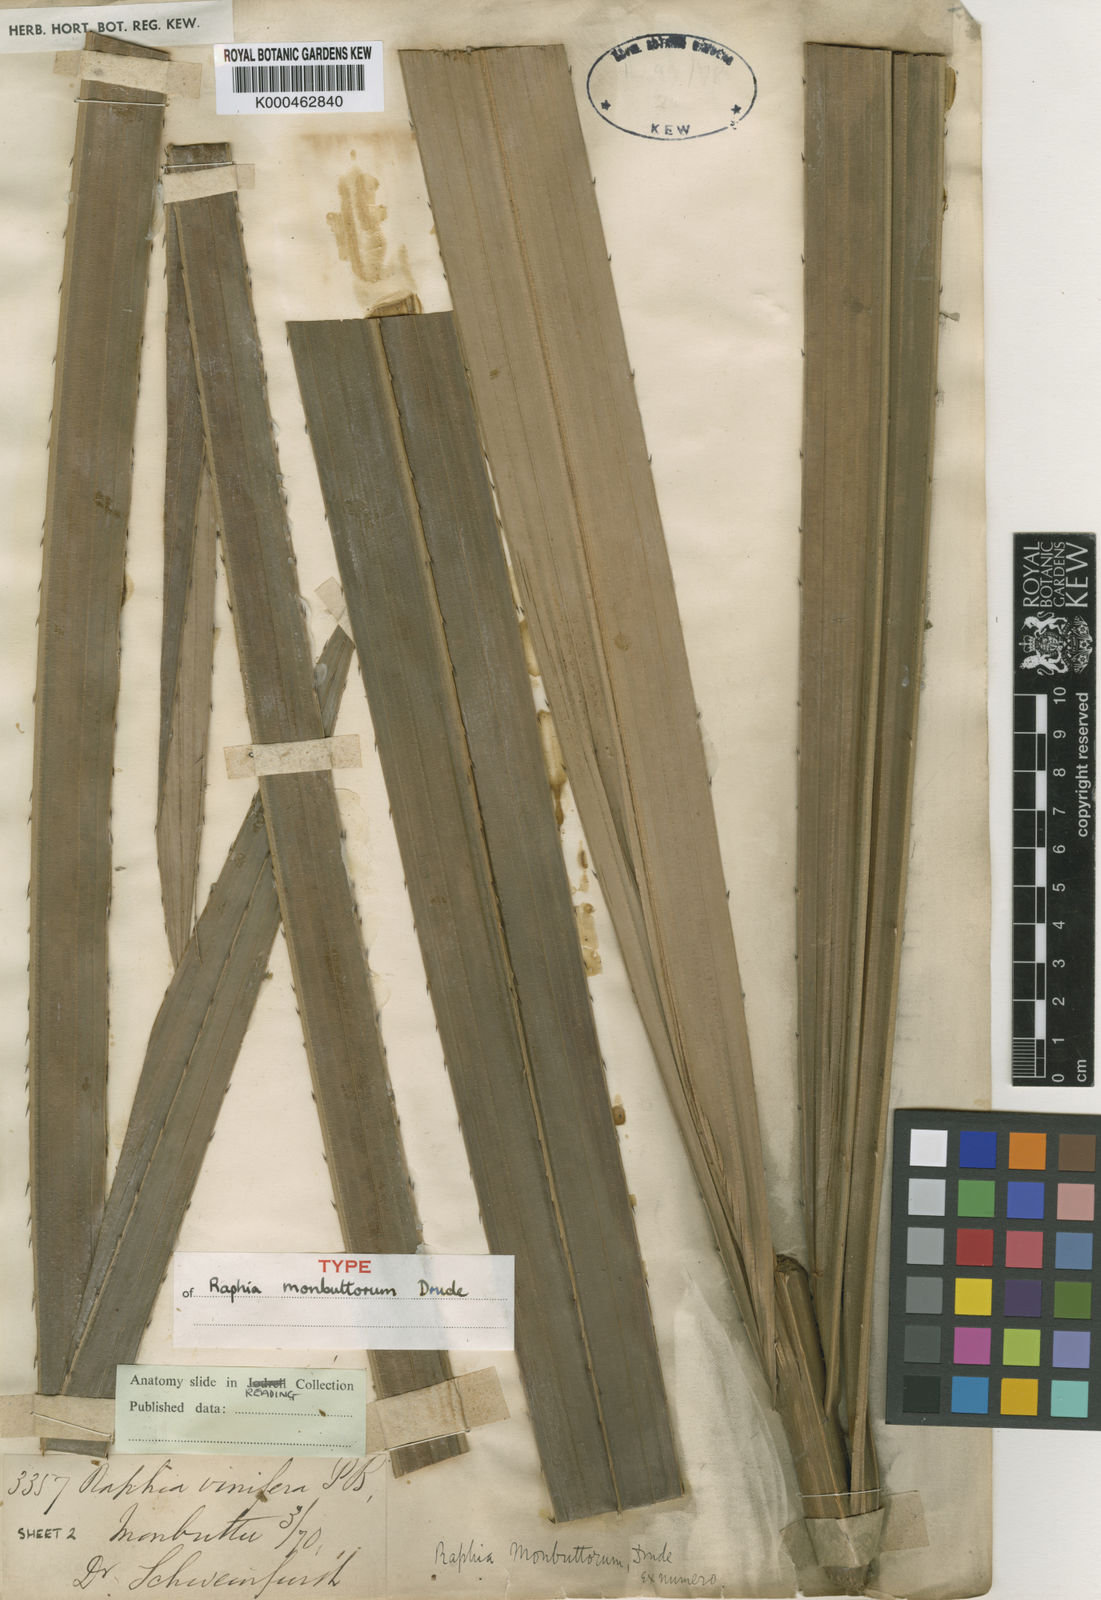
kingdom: Plantae
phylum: Tracheophyta
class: Liliopsida
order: Arecales
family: Arecaceae
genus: Raphia
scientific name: Raphia monbuttorum
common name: Raphia palm
